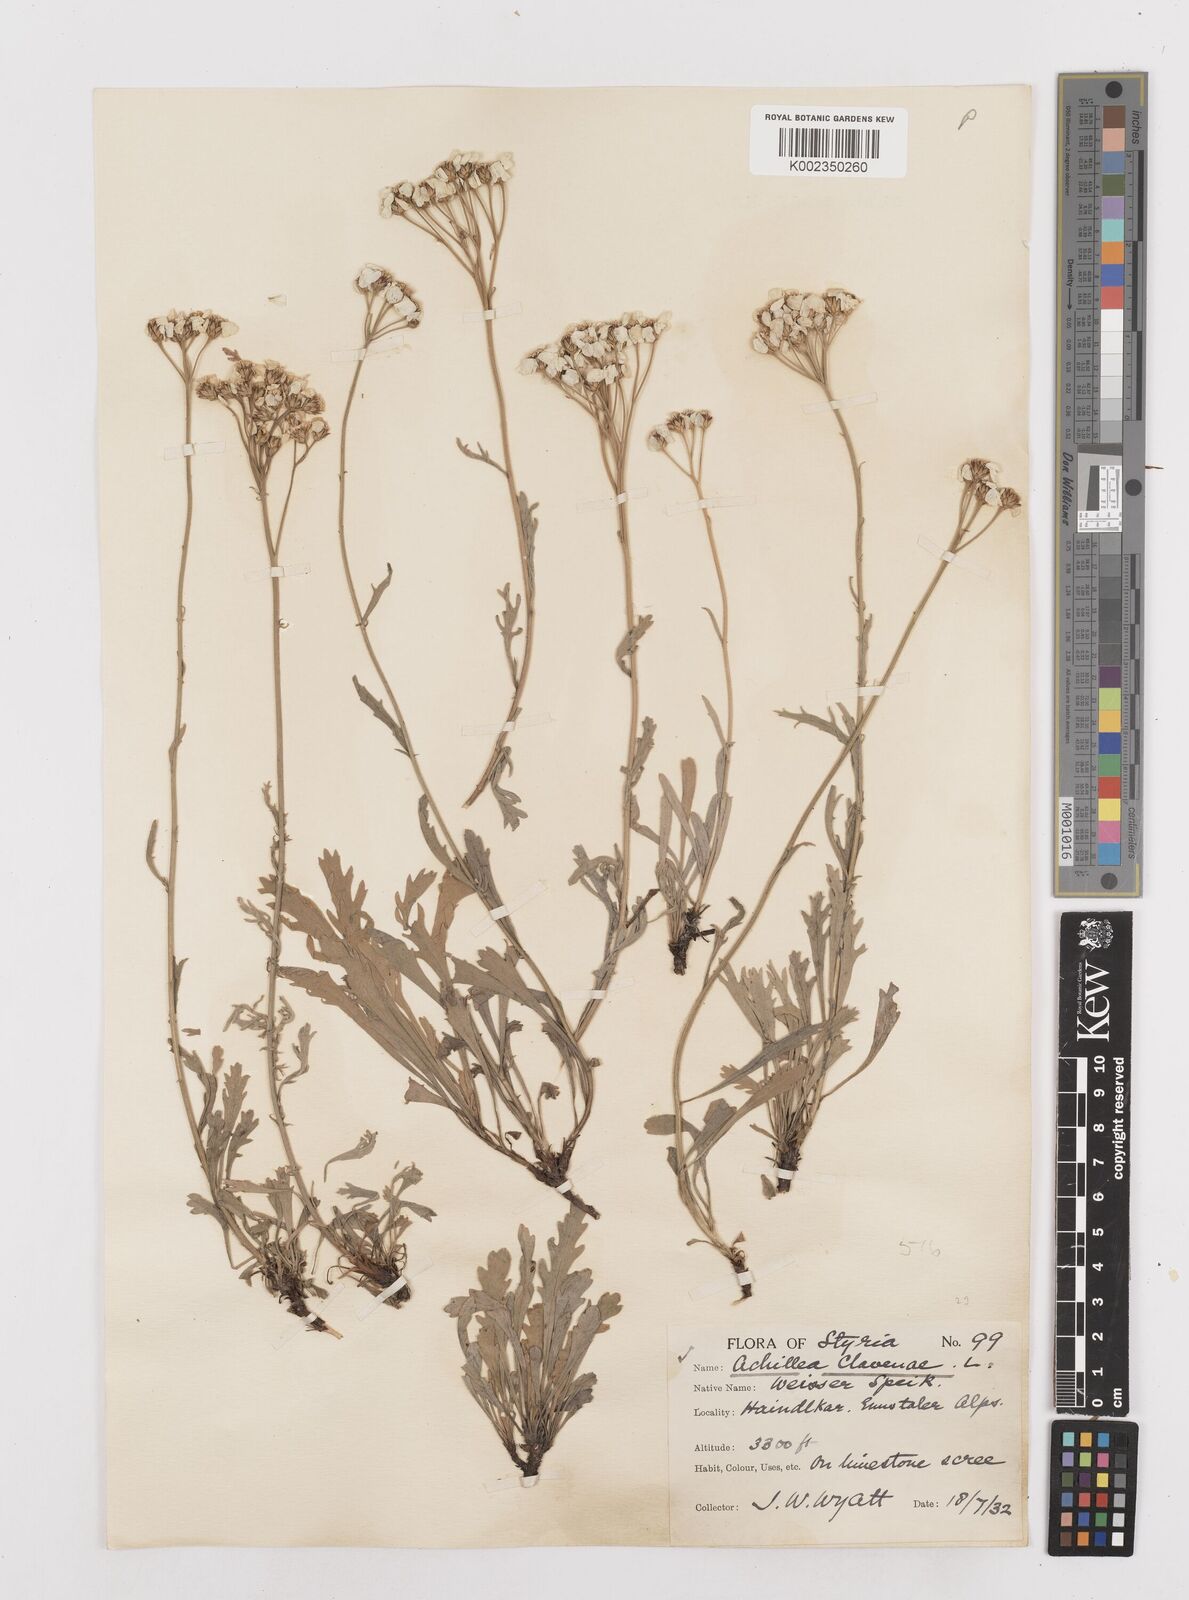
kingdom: Plantae
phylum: Tracheophyta
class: Magnoliopsida
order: Asterales
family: Asteraceae
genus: Achillea
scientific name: Achillea clavennae
